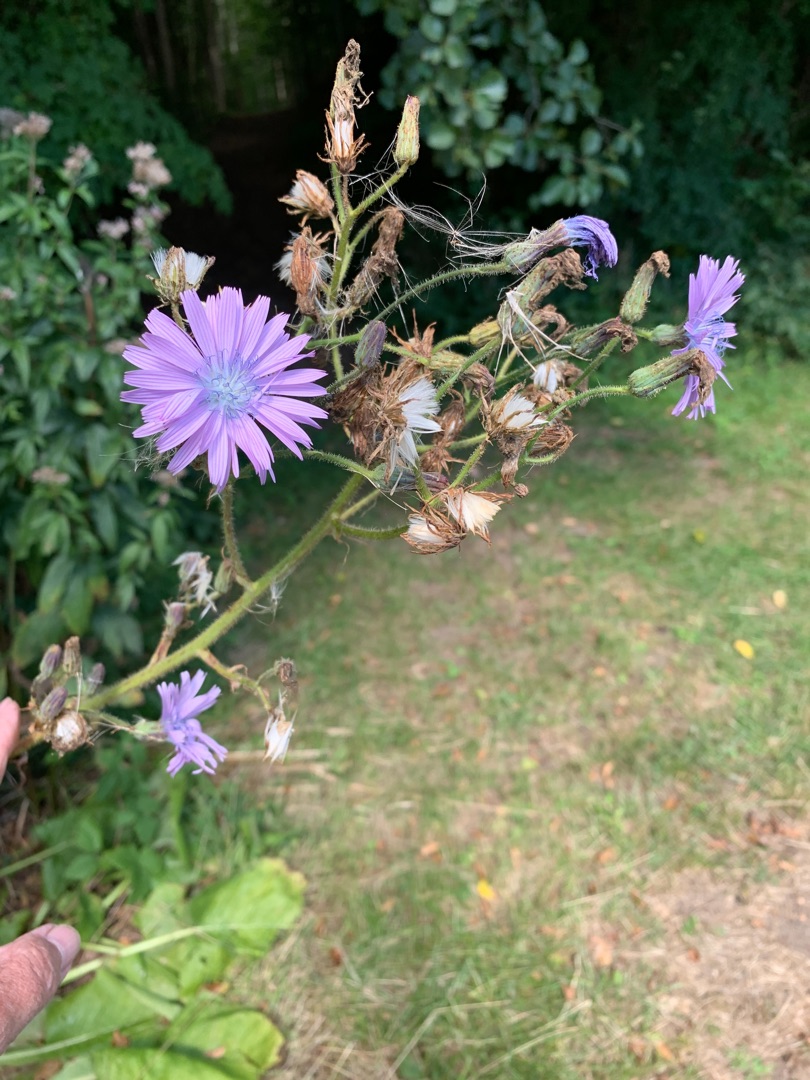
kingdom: Plantae
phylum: Tracheophyta
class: Magnoliopsida
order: Asterales
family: Asteraceae
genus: Lactuca
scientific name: Lactuca macrophylla
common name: Kæmpe-salat
